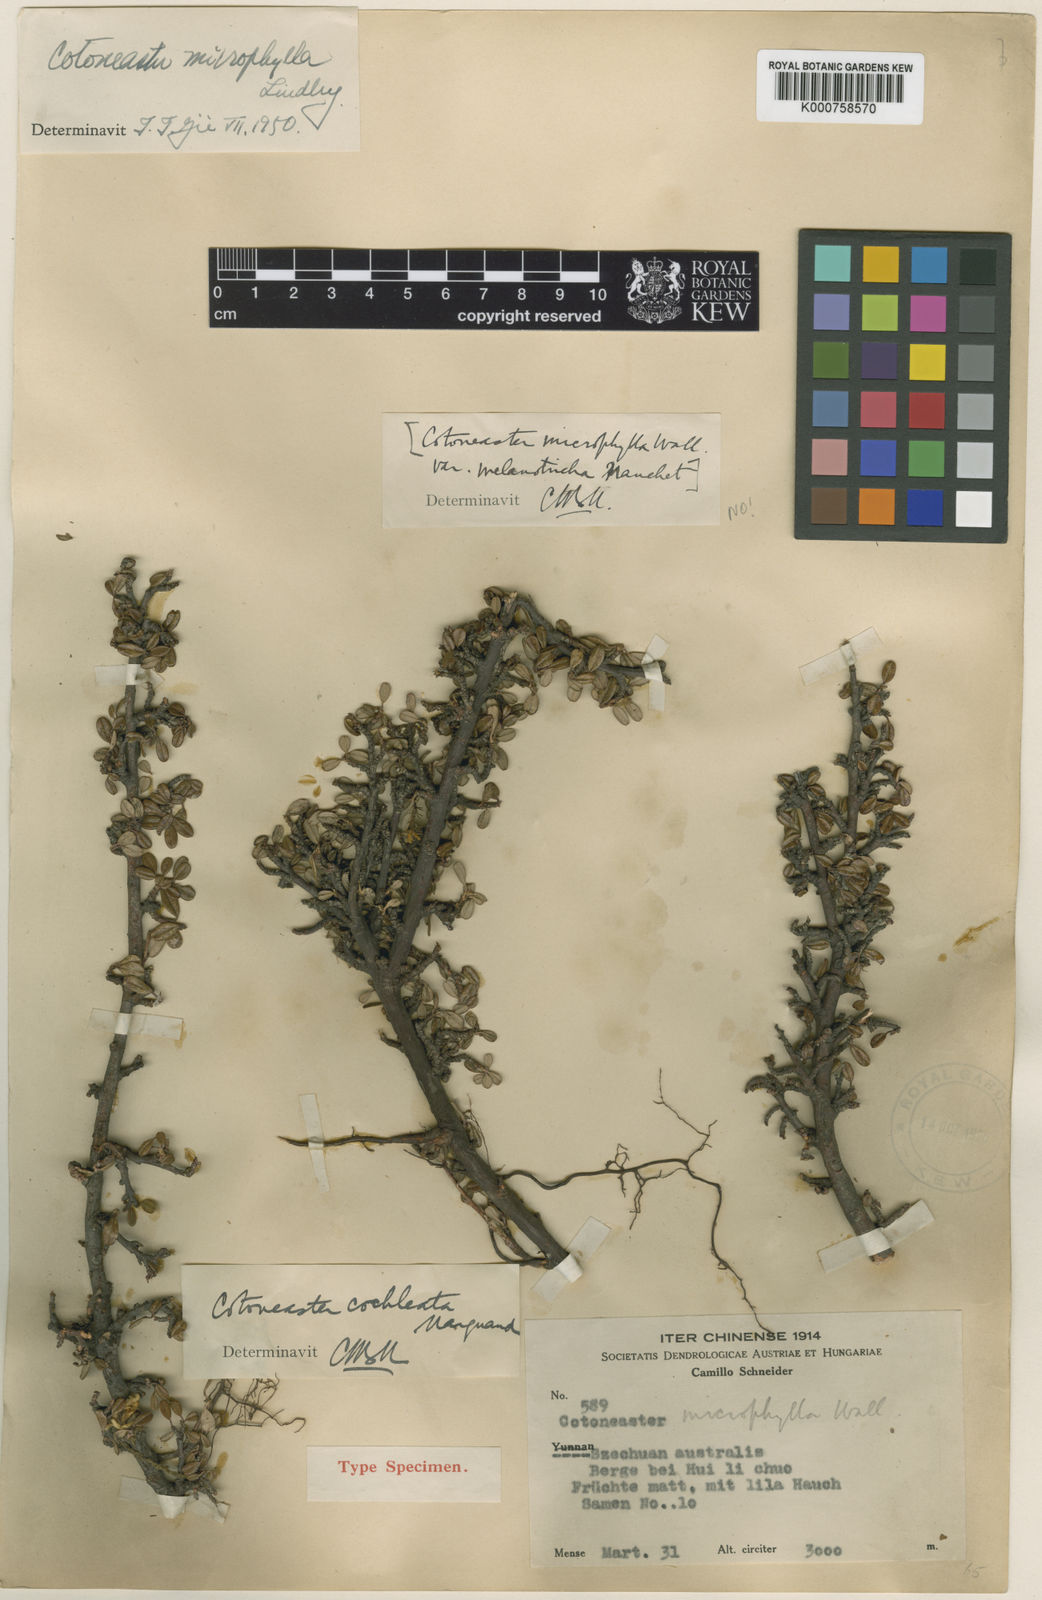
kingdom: Plantae
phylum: Tracheophyta
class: Magnoliopsida
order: Rosales
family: Rosaceae
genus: Cotoneaster
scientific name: Cotoneaster microphyllus
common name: Small-leaved cotoneaster
